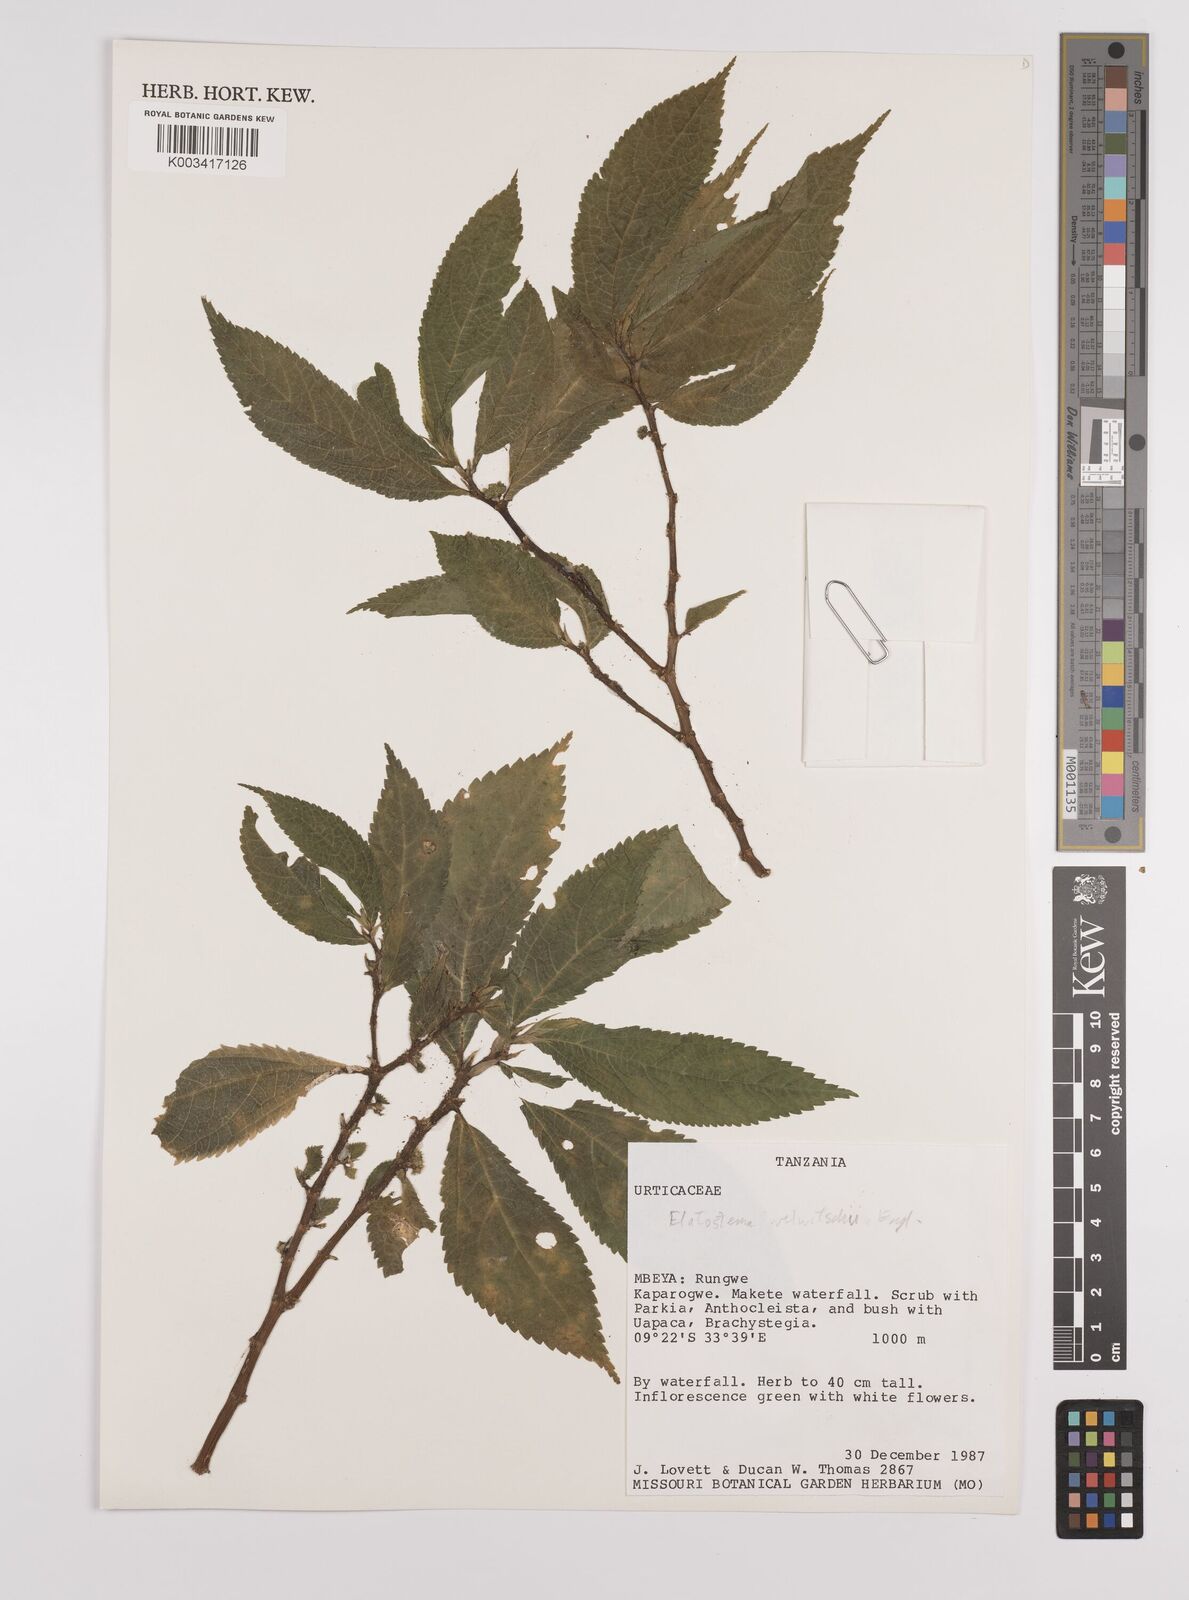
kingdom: Plantae
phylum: Tracheophyta
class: Magnoliopsida
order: Rosales
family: Urticaceae
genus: Elatostema
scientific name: Elatostema welwitschii
